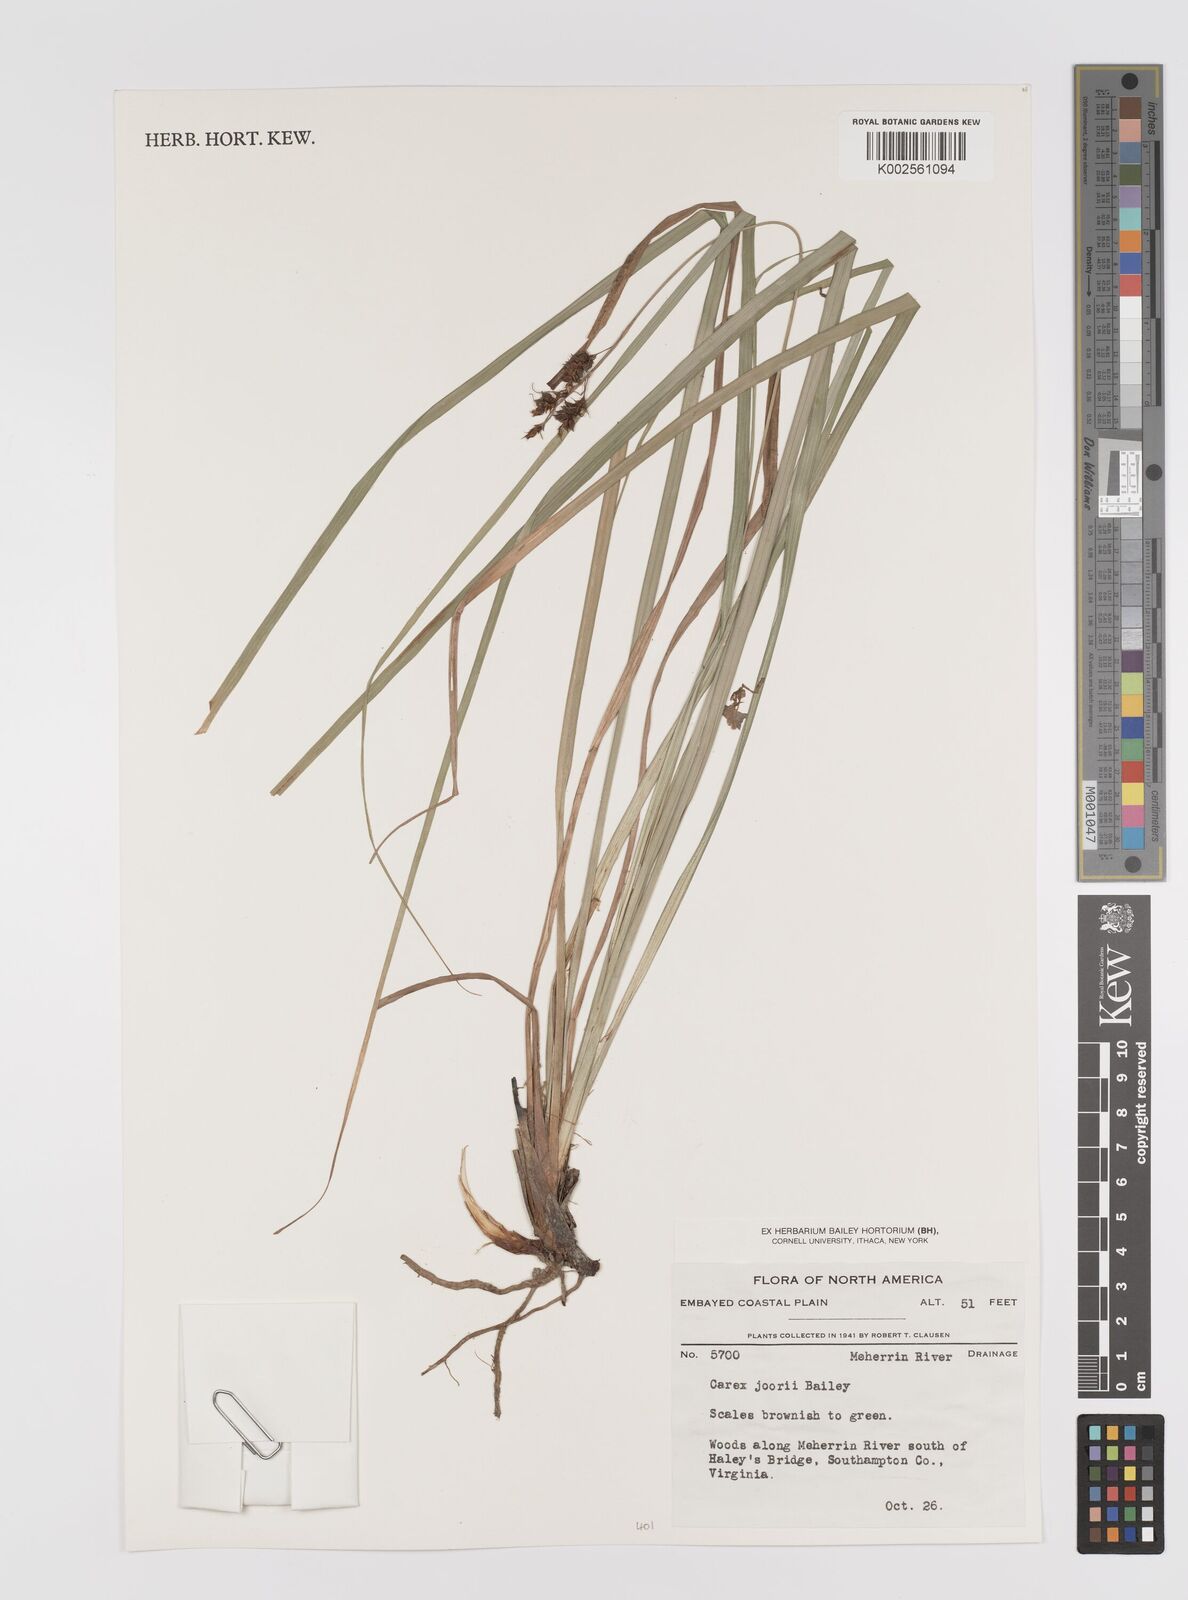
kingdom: Plantae
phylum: Tracheophyta
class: Liliopsida
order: Poales
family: Cyperaceae
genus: Carex
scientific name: Carex joorii
